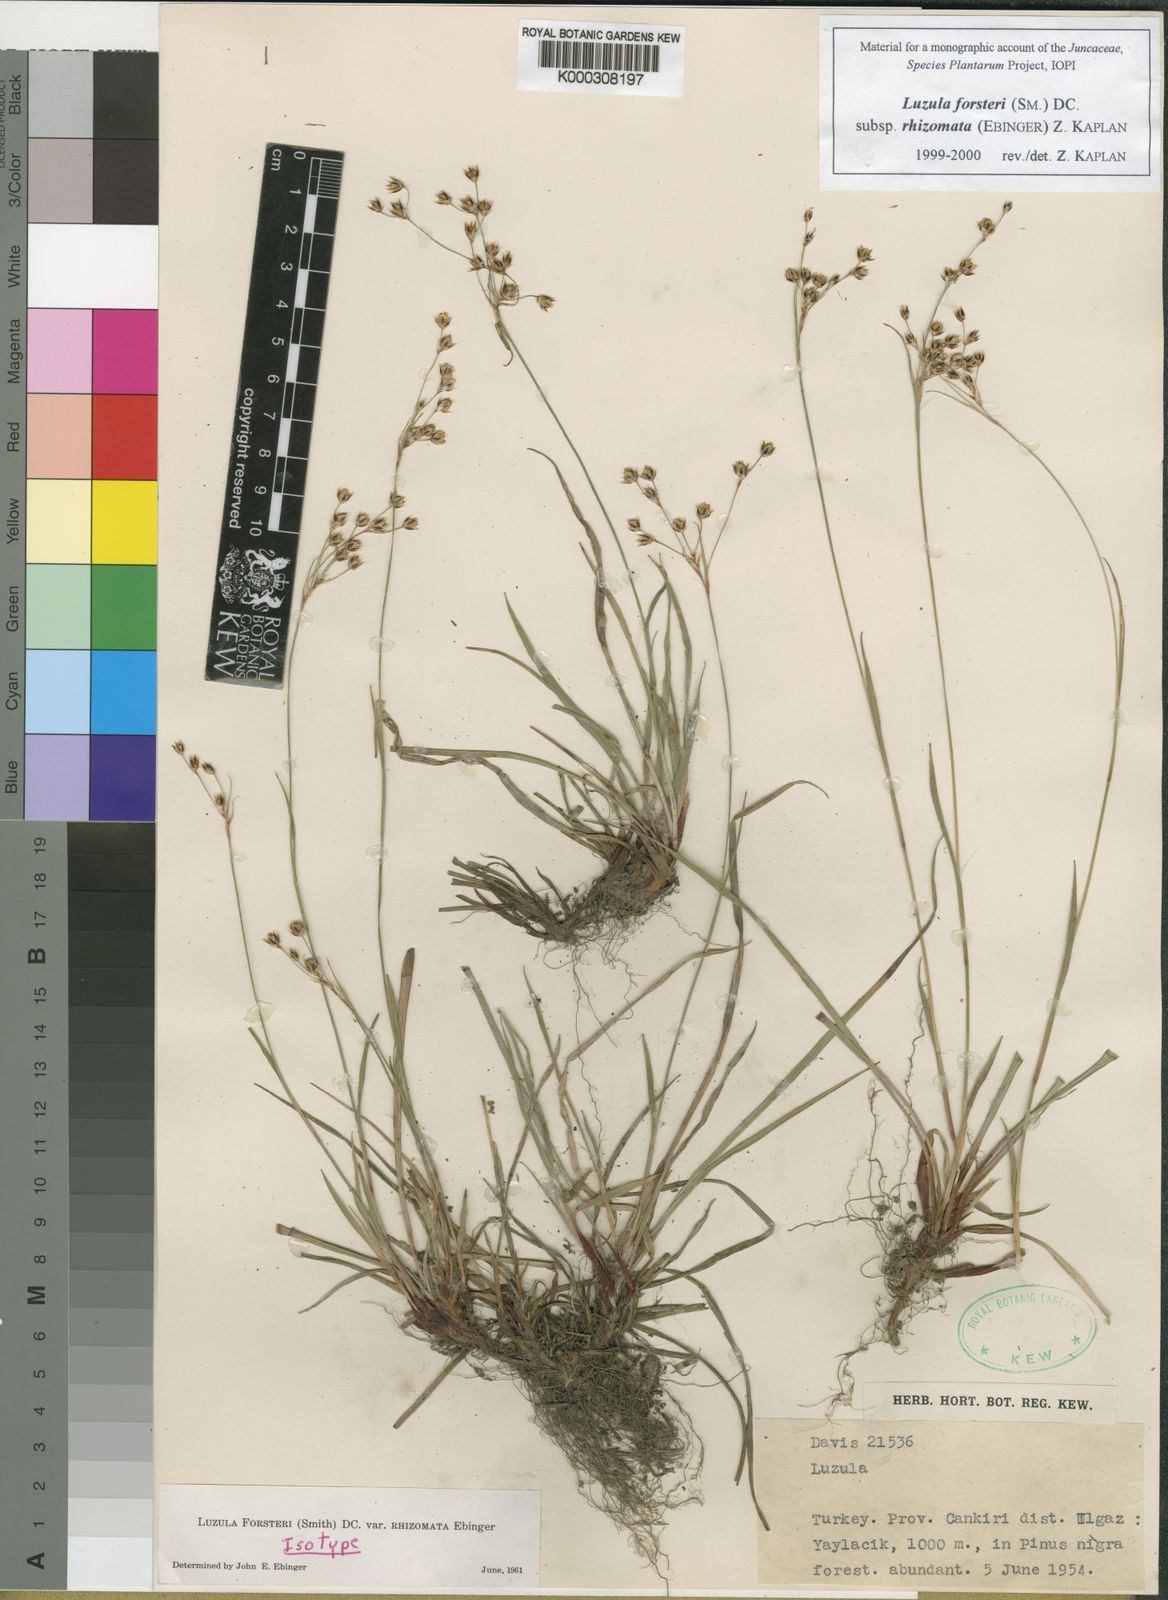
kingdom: Plantae
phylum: Tracheophyta
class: Liliopsida
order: Poales
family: Juncaceae
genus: Luzula
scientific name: Luzula forsteri
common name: Southern wood-rush
